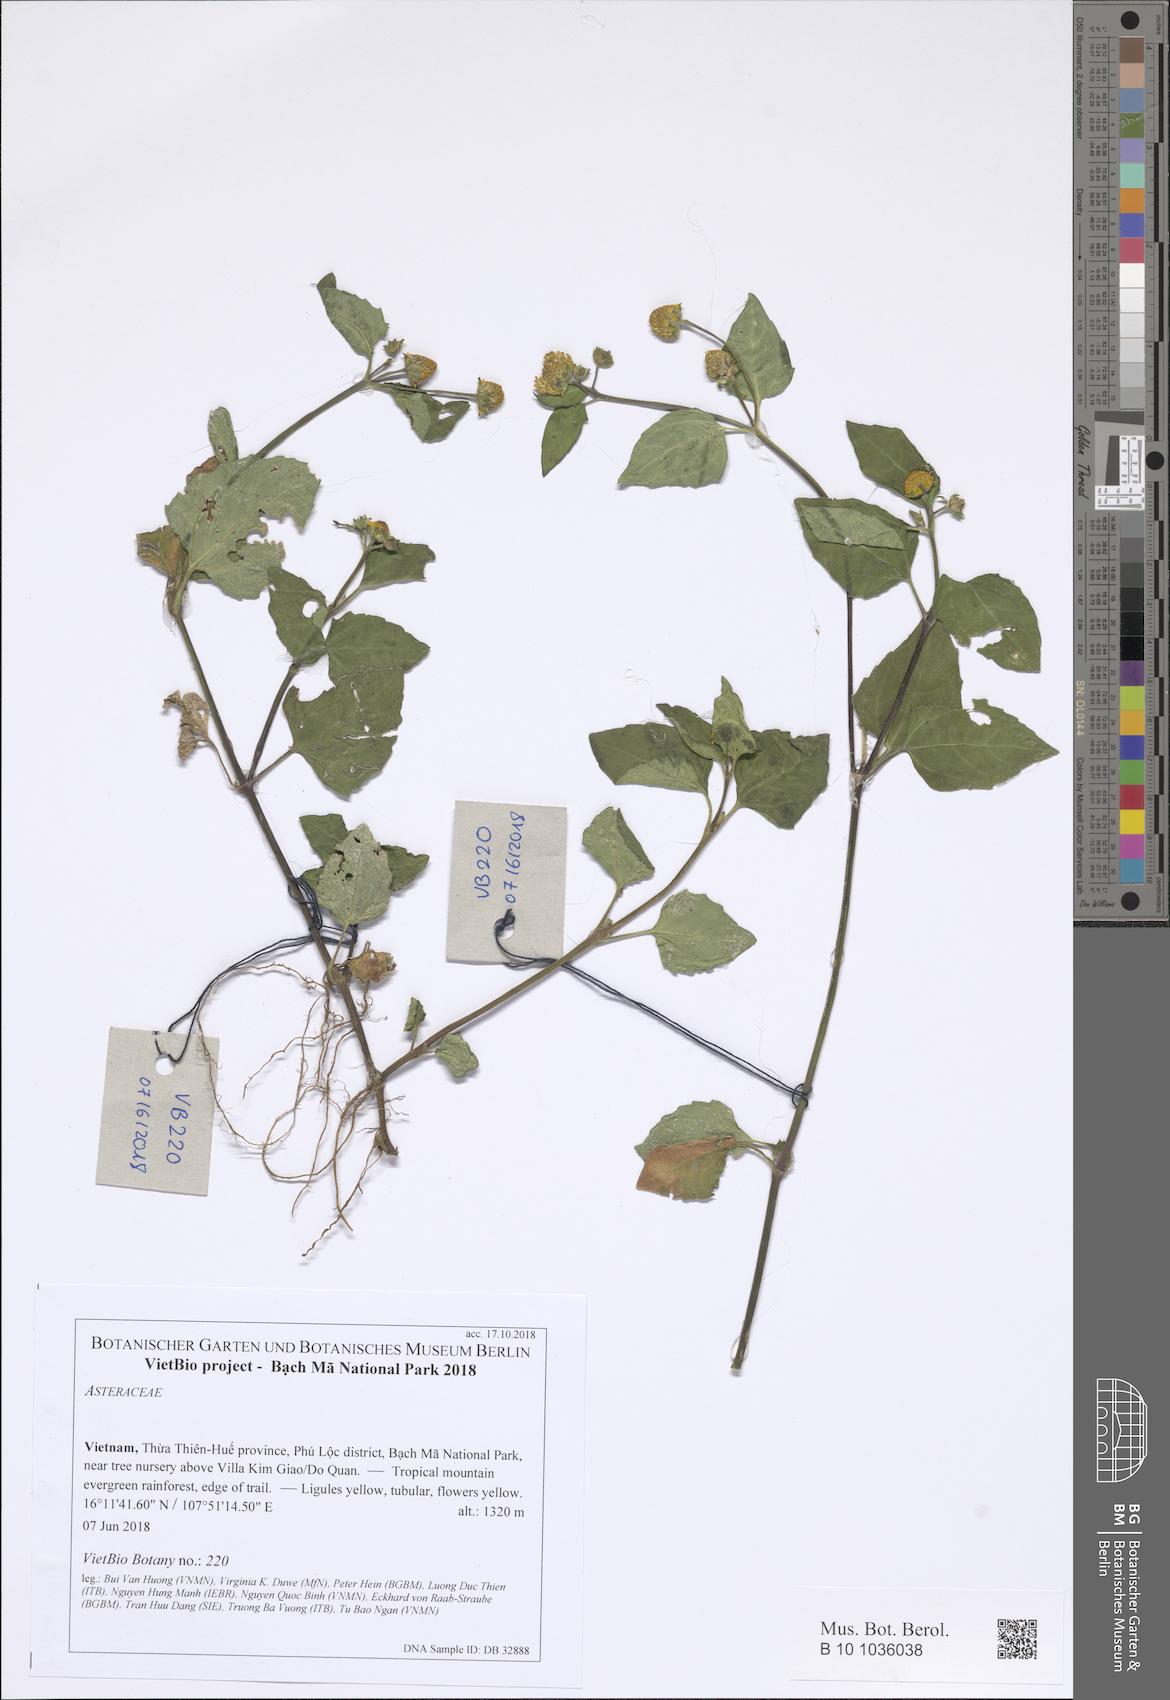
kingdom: Plantae
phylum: Tracheophyta
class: Magnoliopsida
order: Asterales
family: Asteraceae
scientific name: Asteraceae
